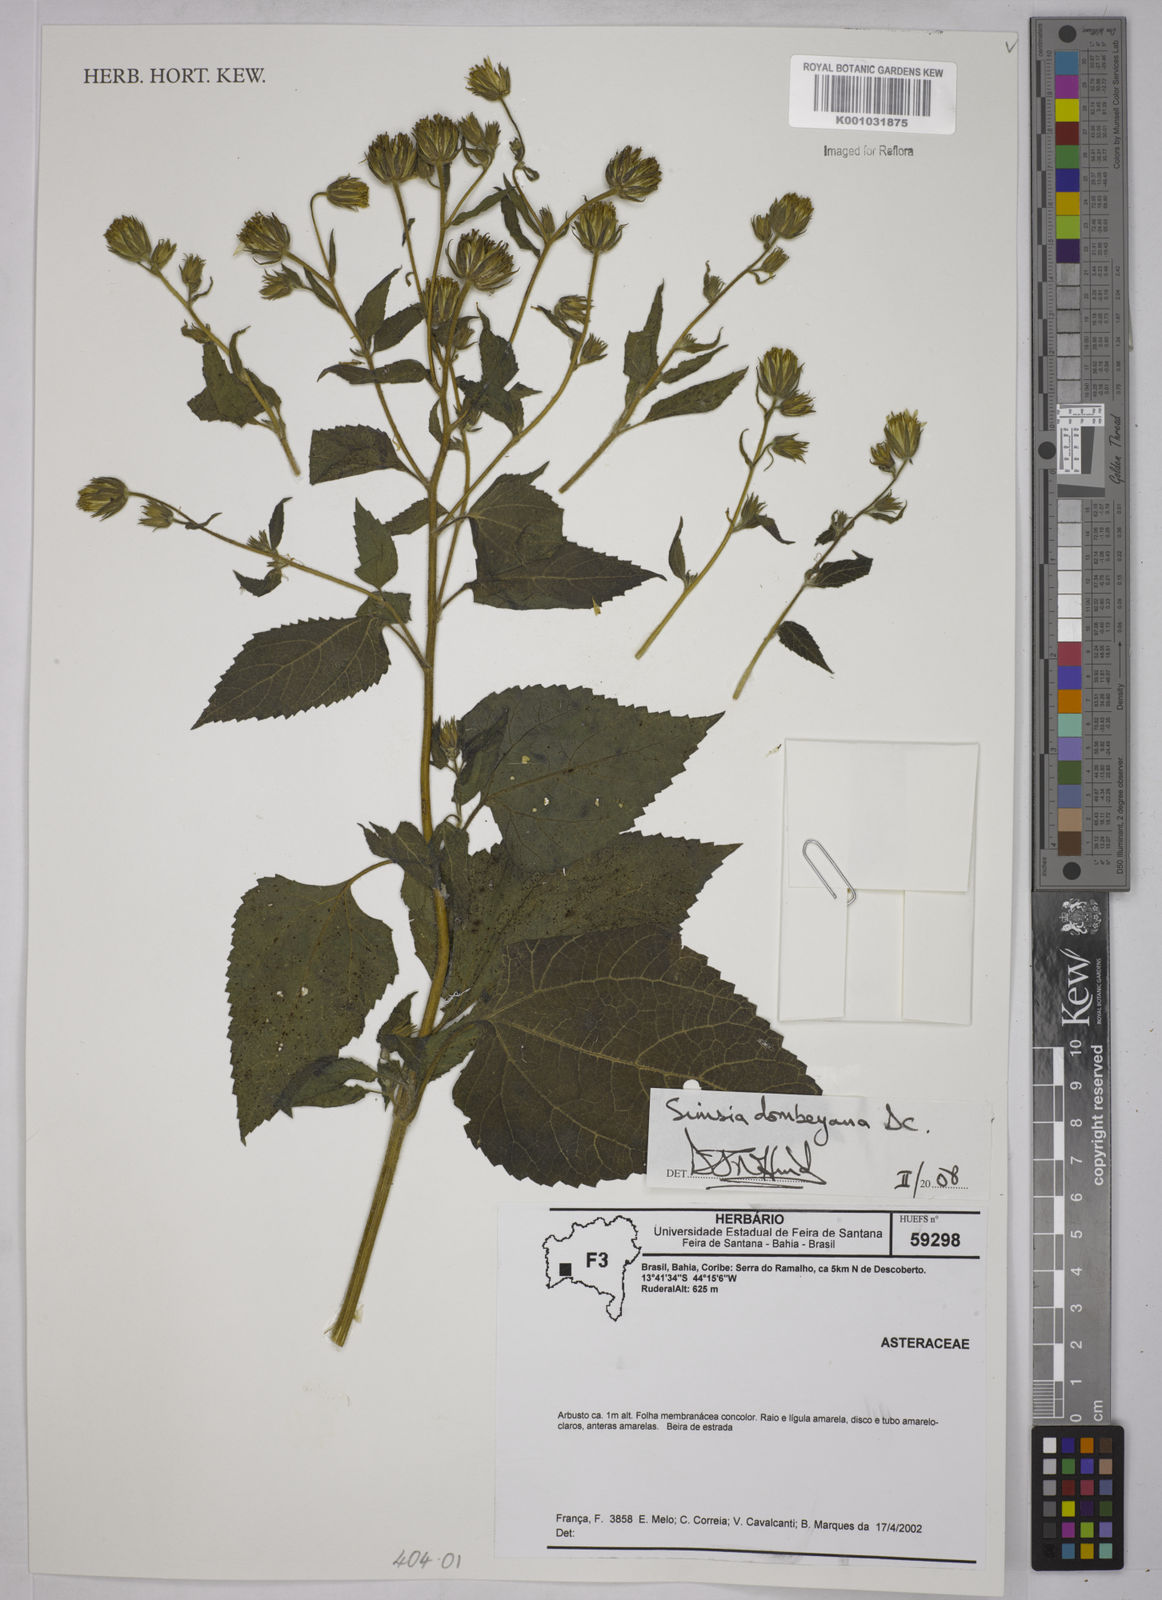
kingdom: Plantae
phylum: Tracheophyta
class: Magnoliopsida
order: Asterales
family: Asteraceae
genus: Simsia
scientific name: Simsia dombeyana
